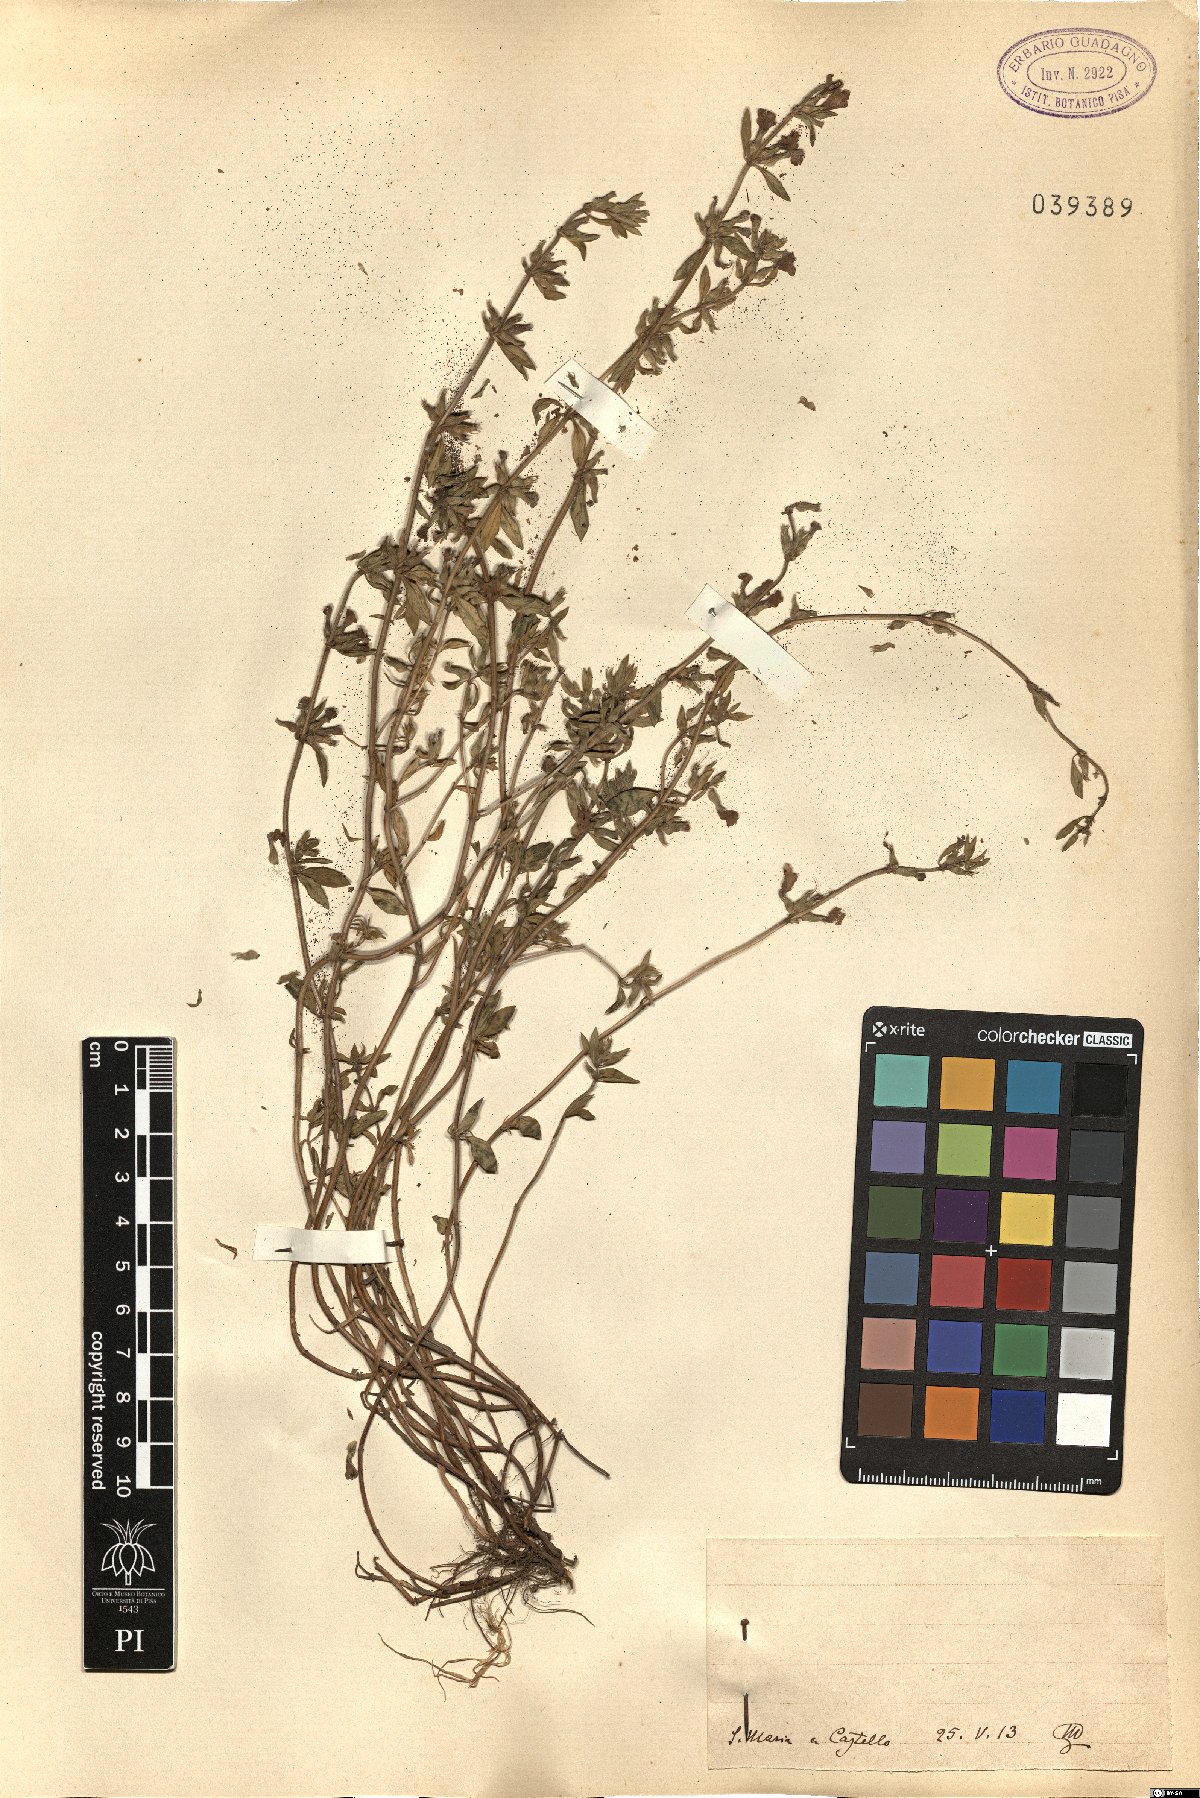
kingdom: Plantae
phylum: Tracheophyta
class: Magnoliopsida
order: Lamiales
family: Lamiaceae
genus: Calamintha
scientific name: Calamintha
